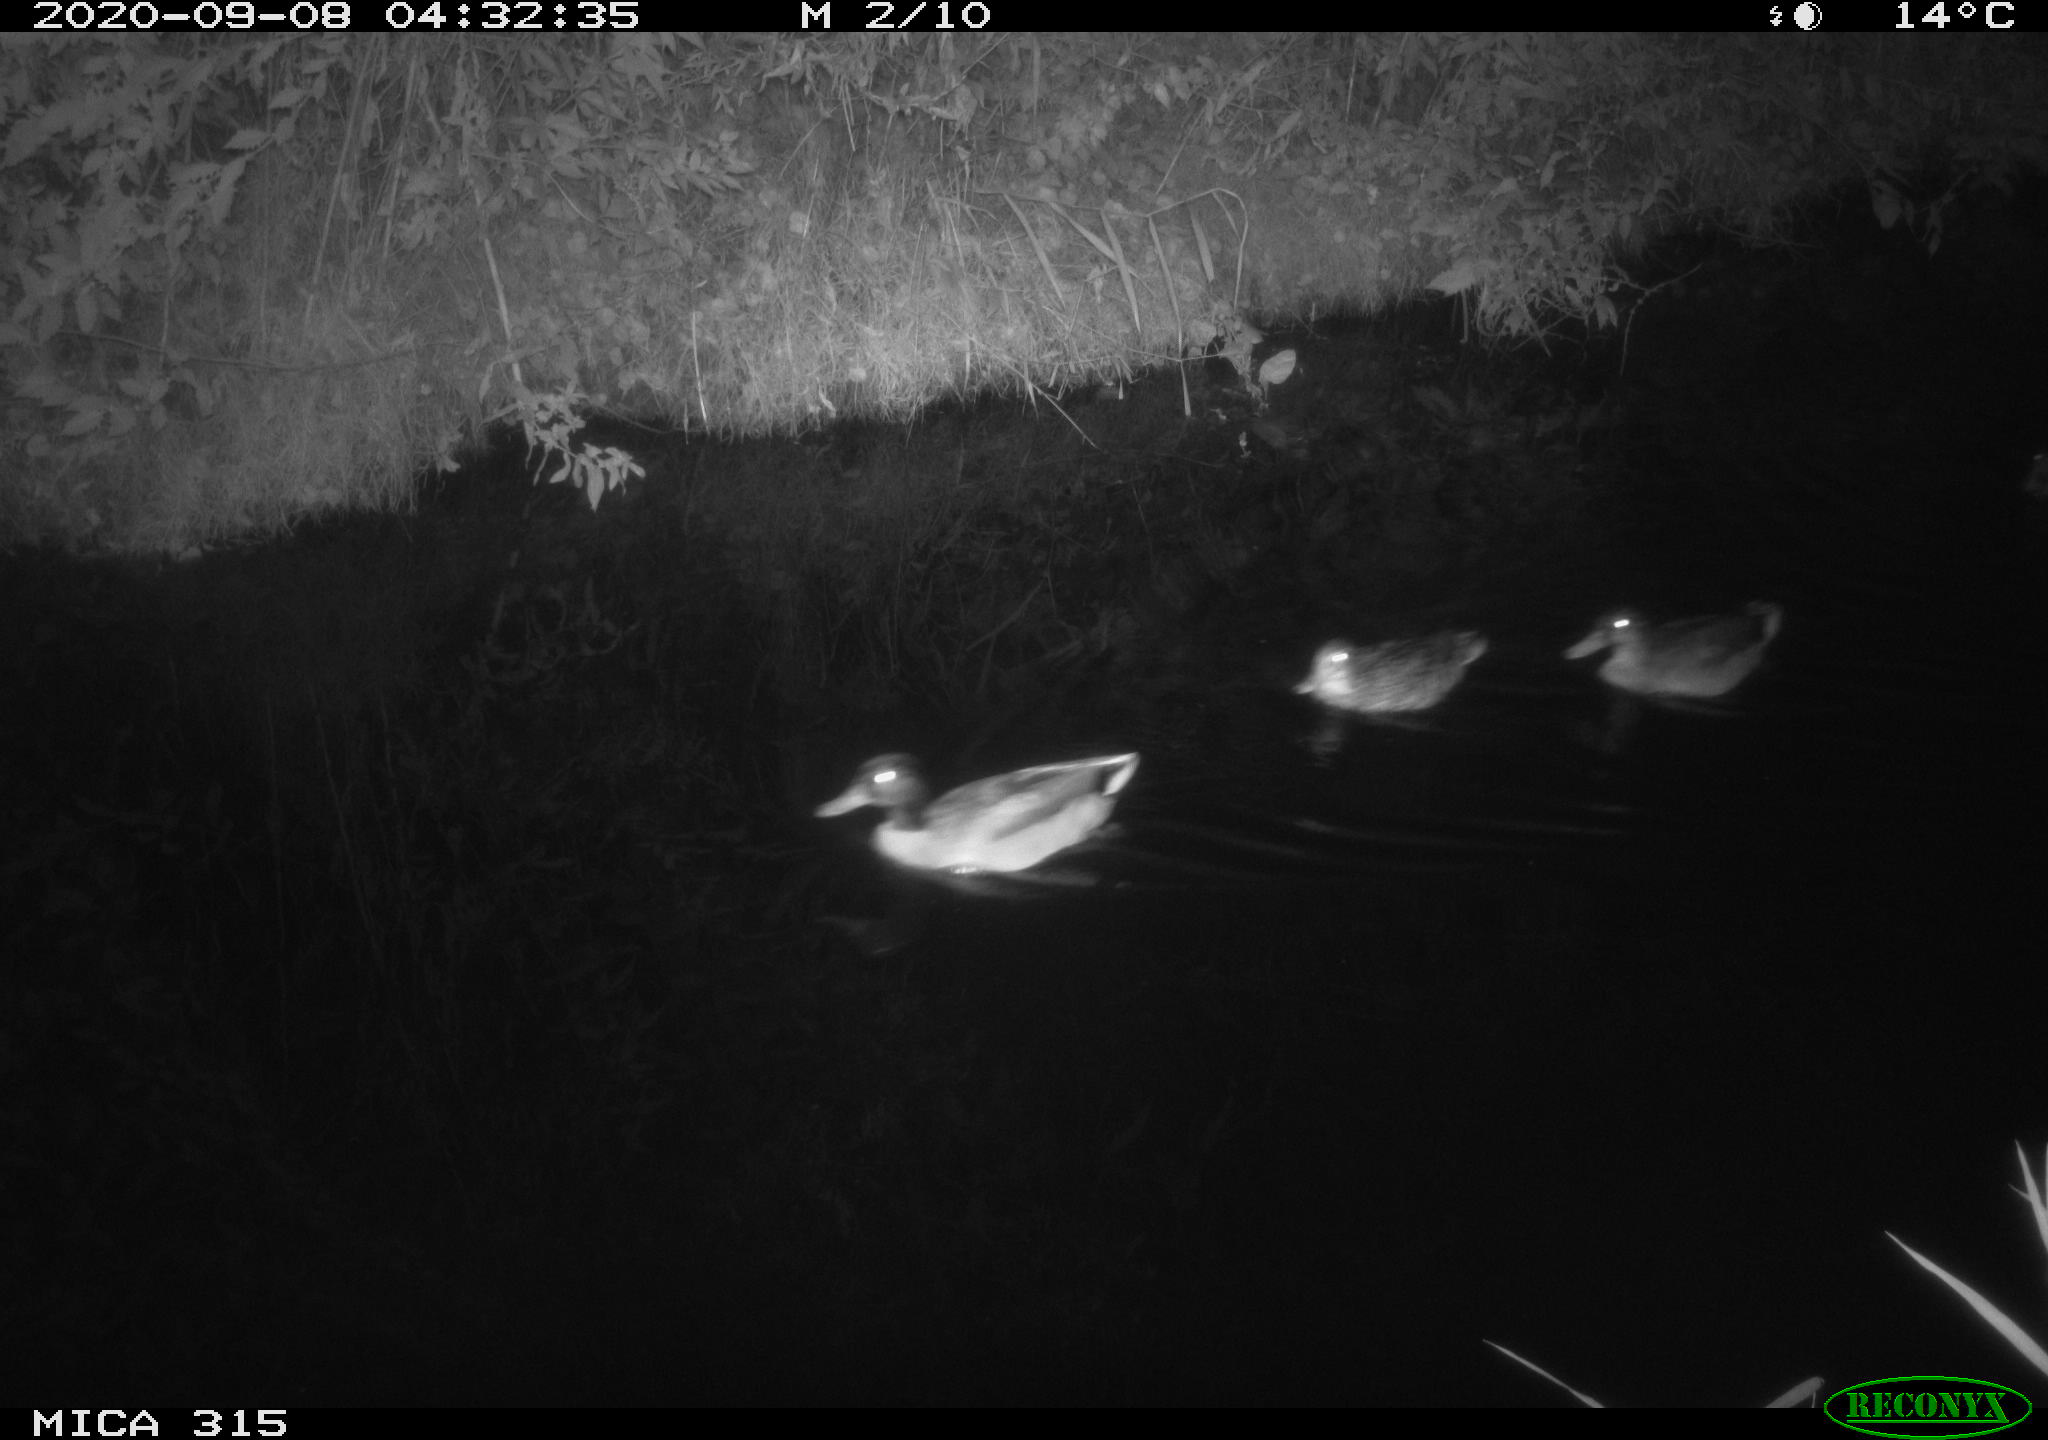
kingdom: Animalia
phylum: Chordata
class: Aves
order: Anseriformes
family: Anatidae
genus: Anas
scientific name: Anas platyrhynchos
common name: Mallard
